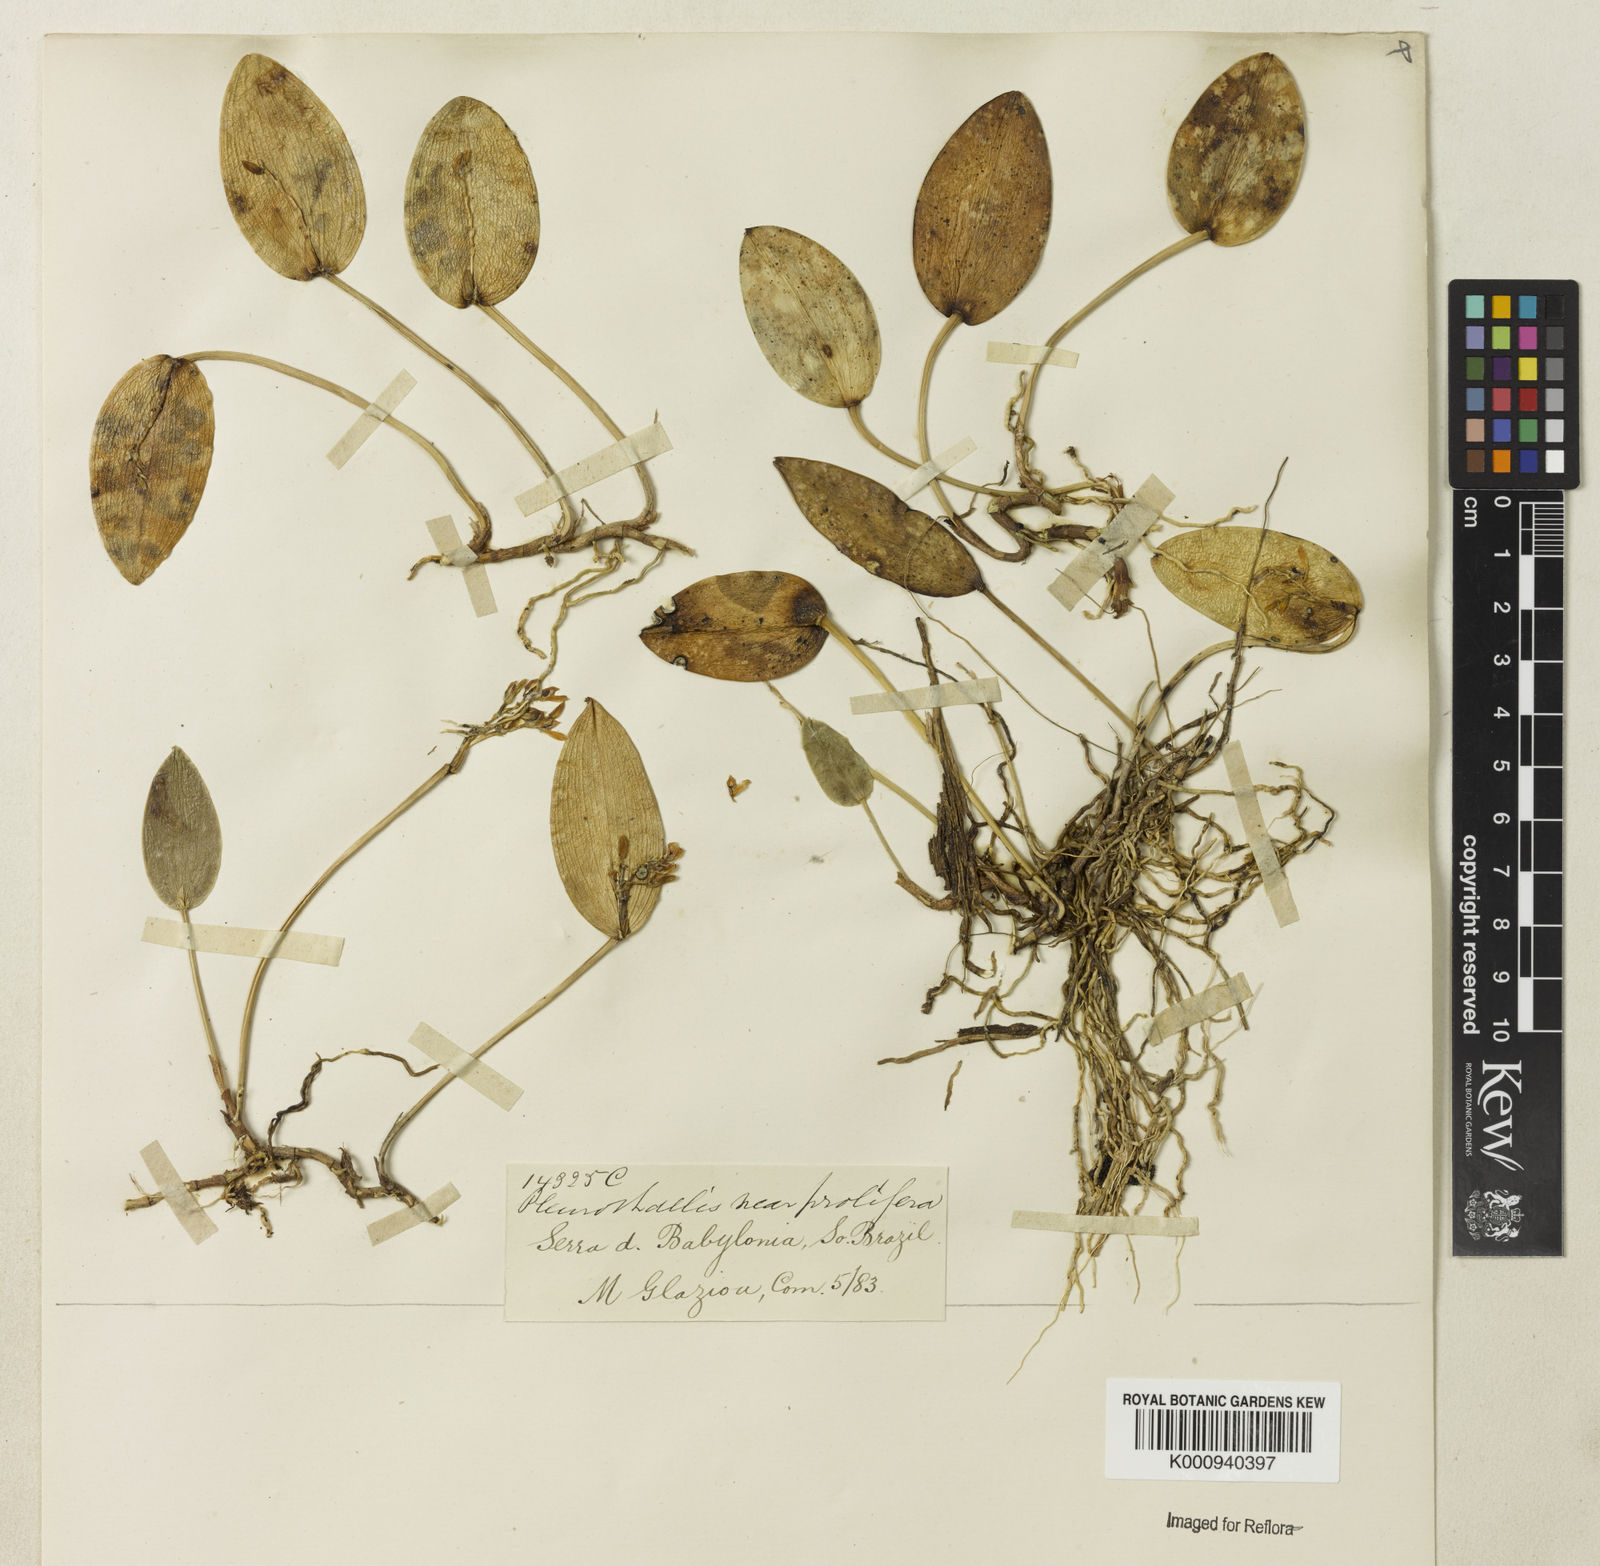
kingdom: Plantae
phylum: Tracheophyta
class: Liliopsida
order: Asparagales
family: Orchidaceae
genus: Pleurothallis
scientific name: Pleurothallis
